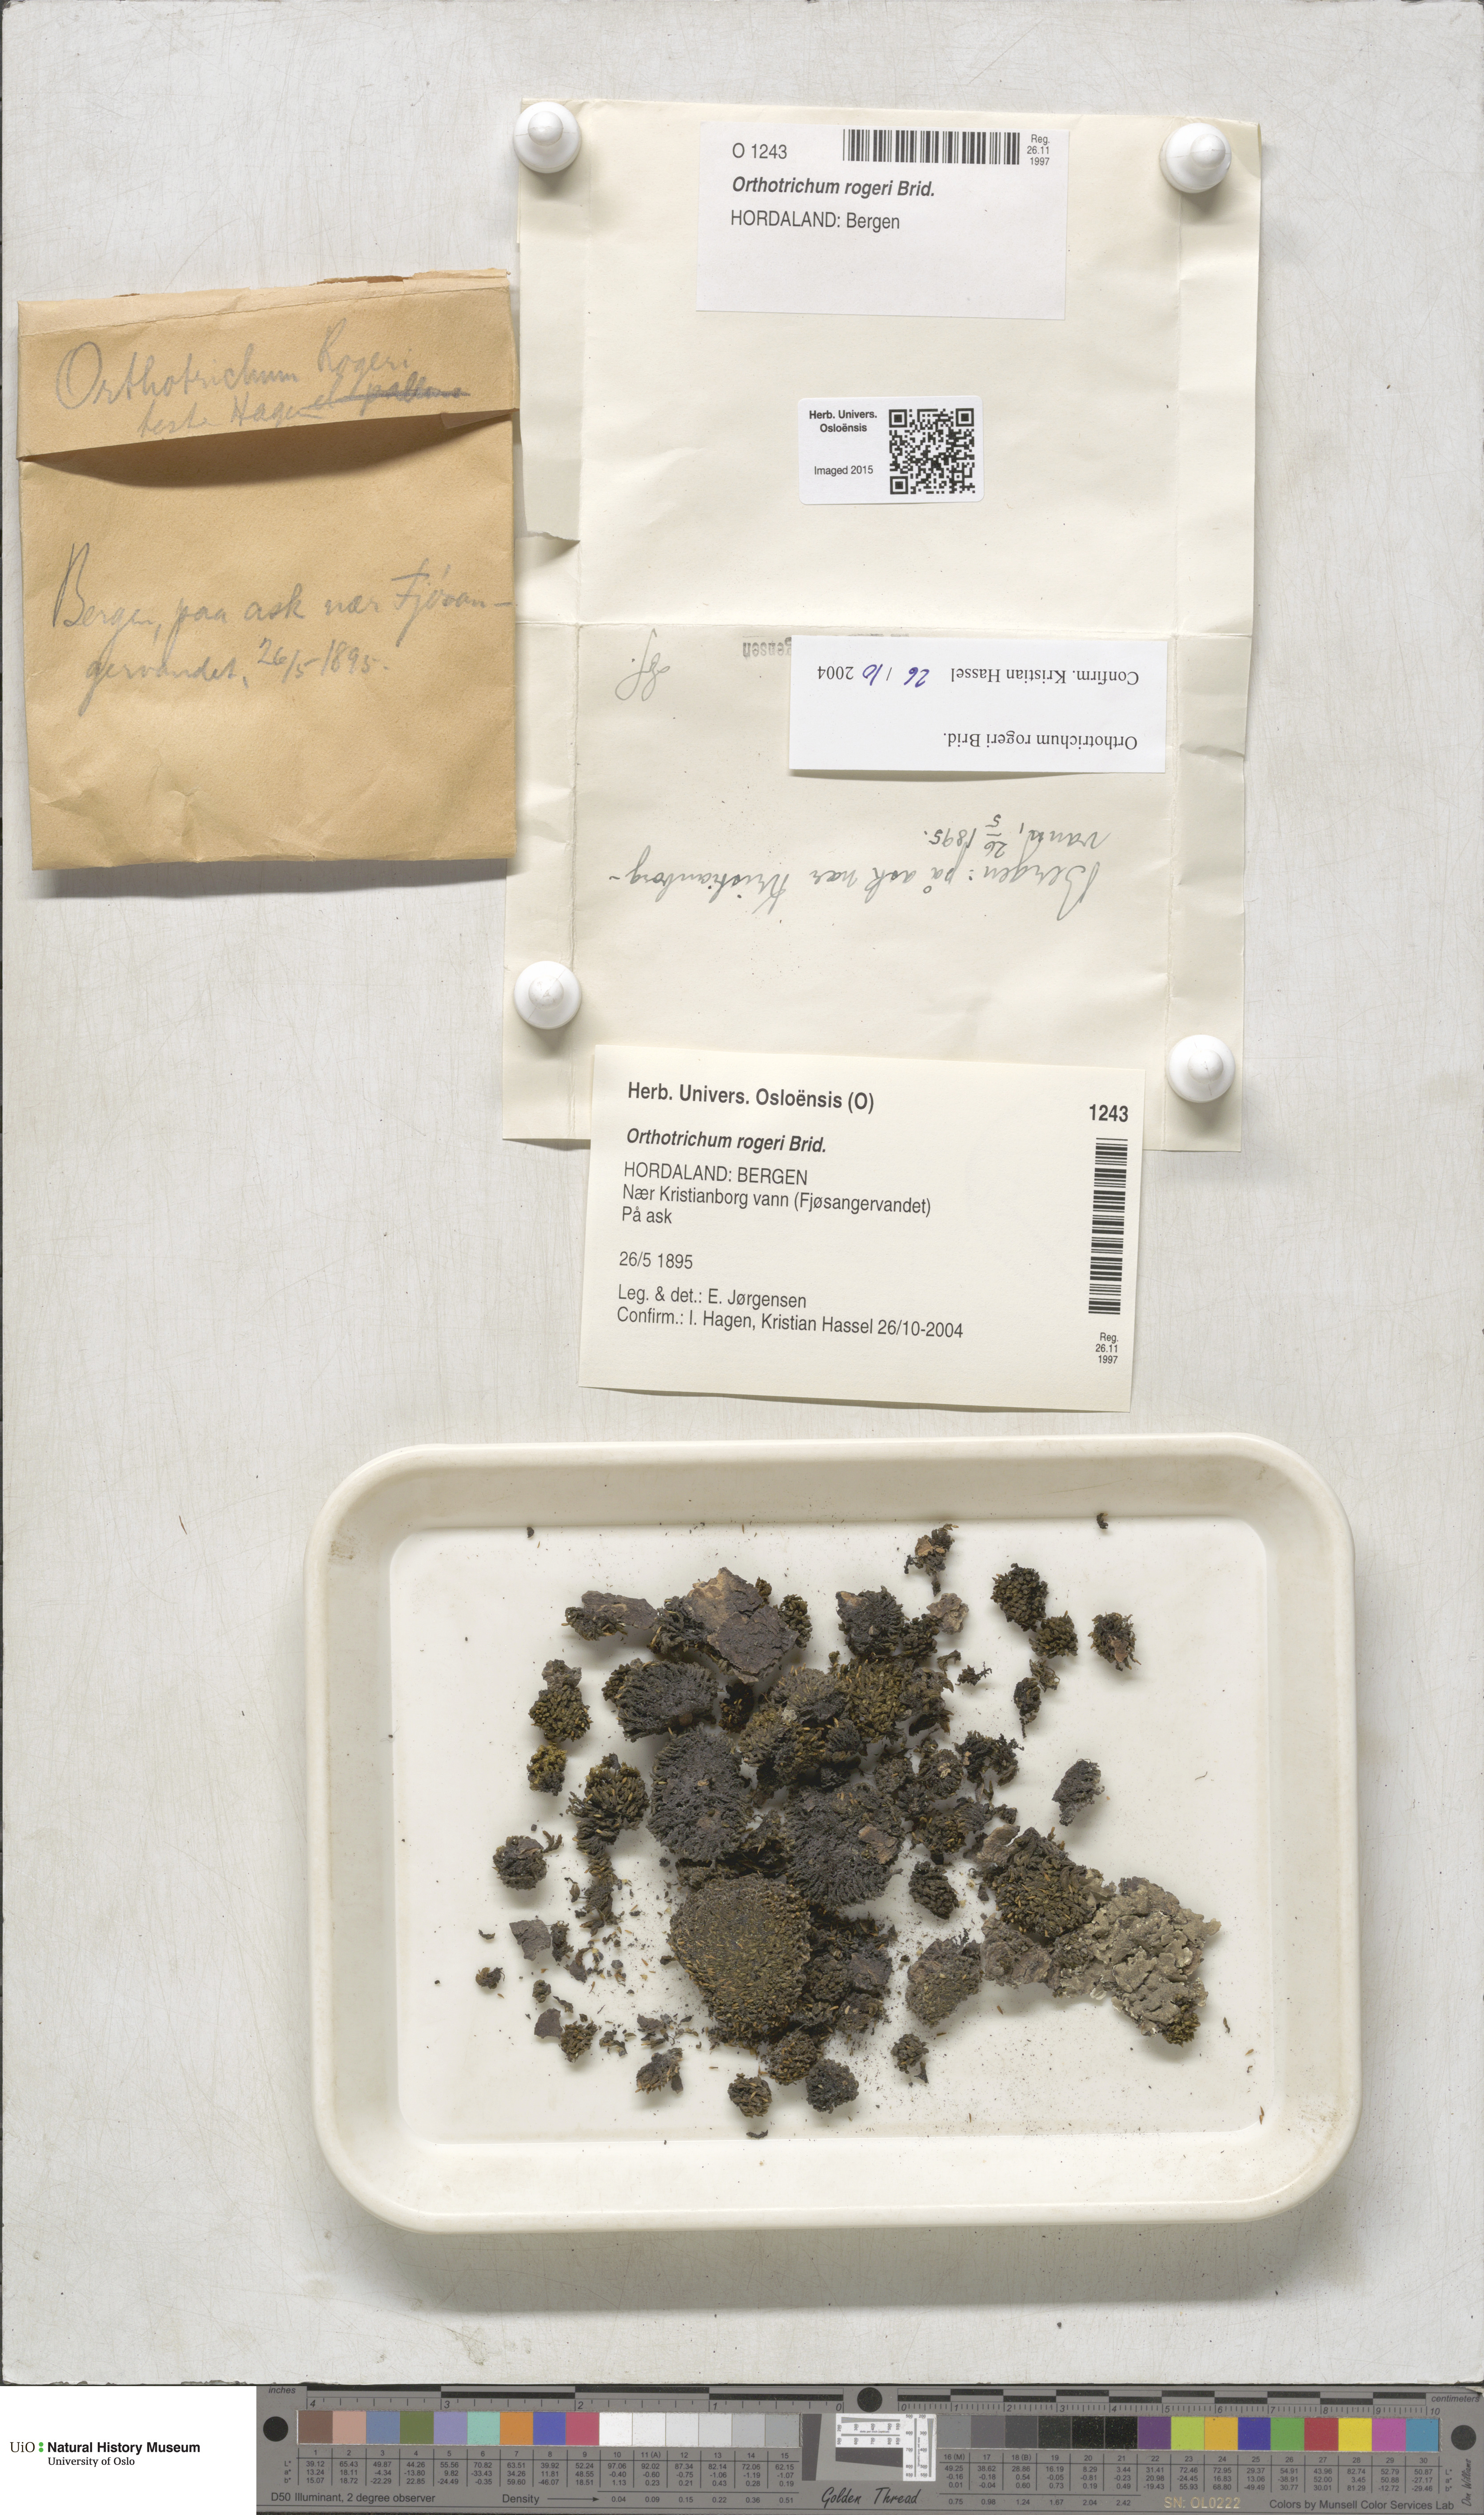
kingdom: Plantae
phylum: Bryophyta
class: Bryopsida
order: Orthotrichales
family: Orthotrichaceae
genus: Orthotrichum
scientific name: Orthotrichum rogeri
